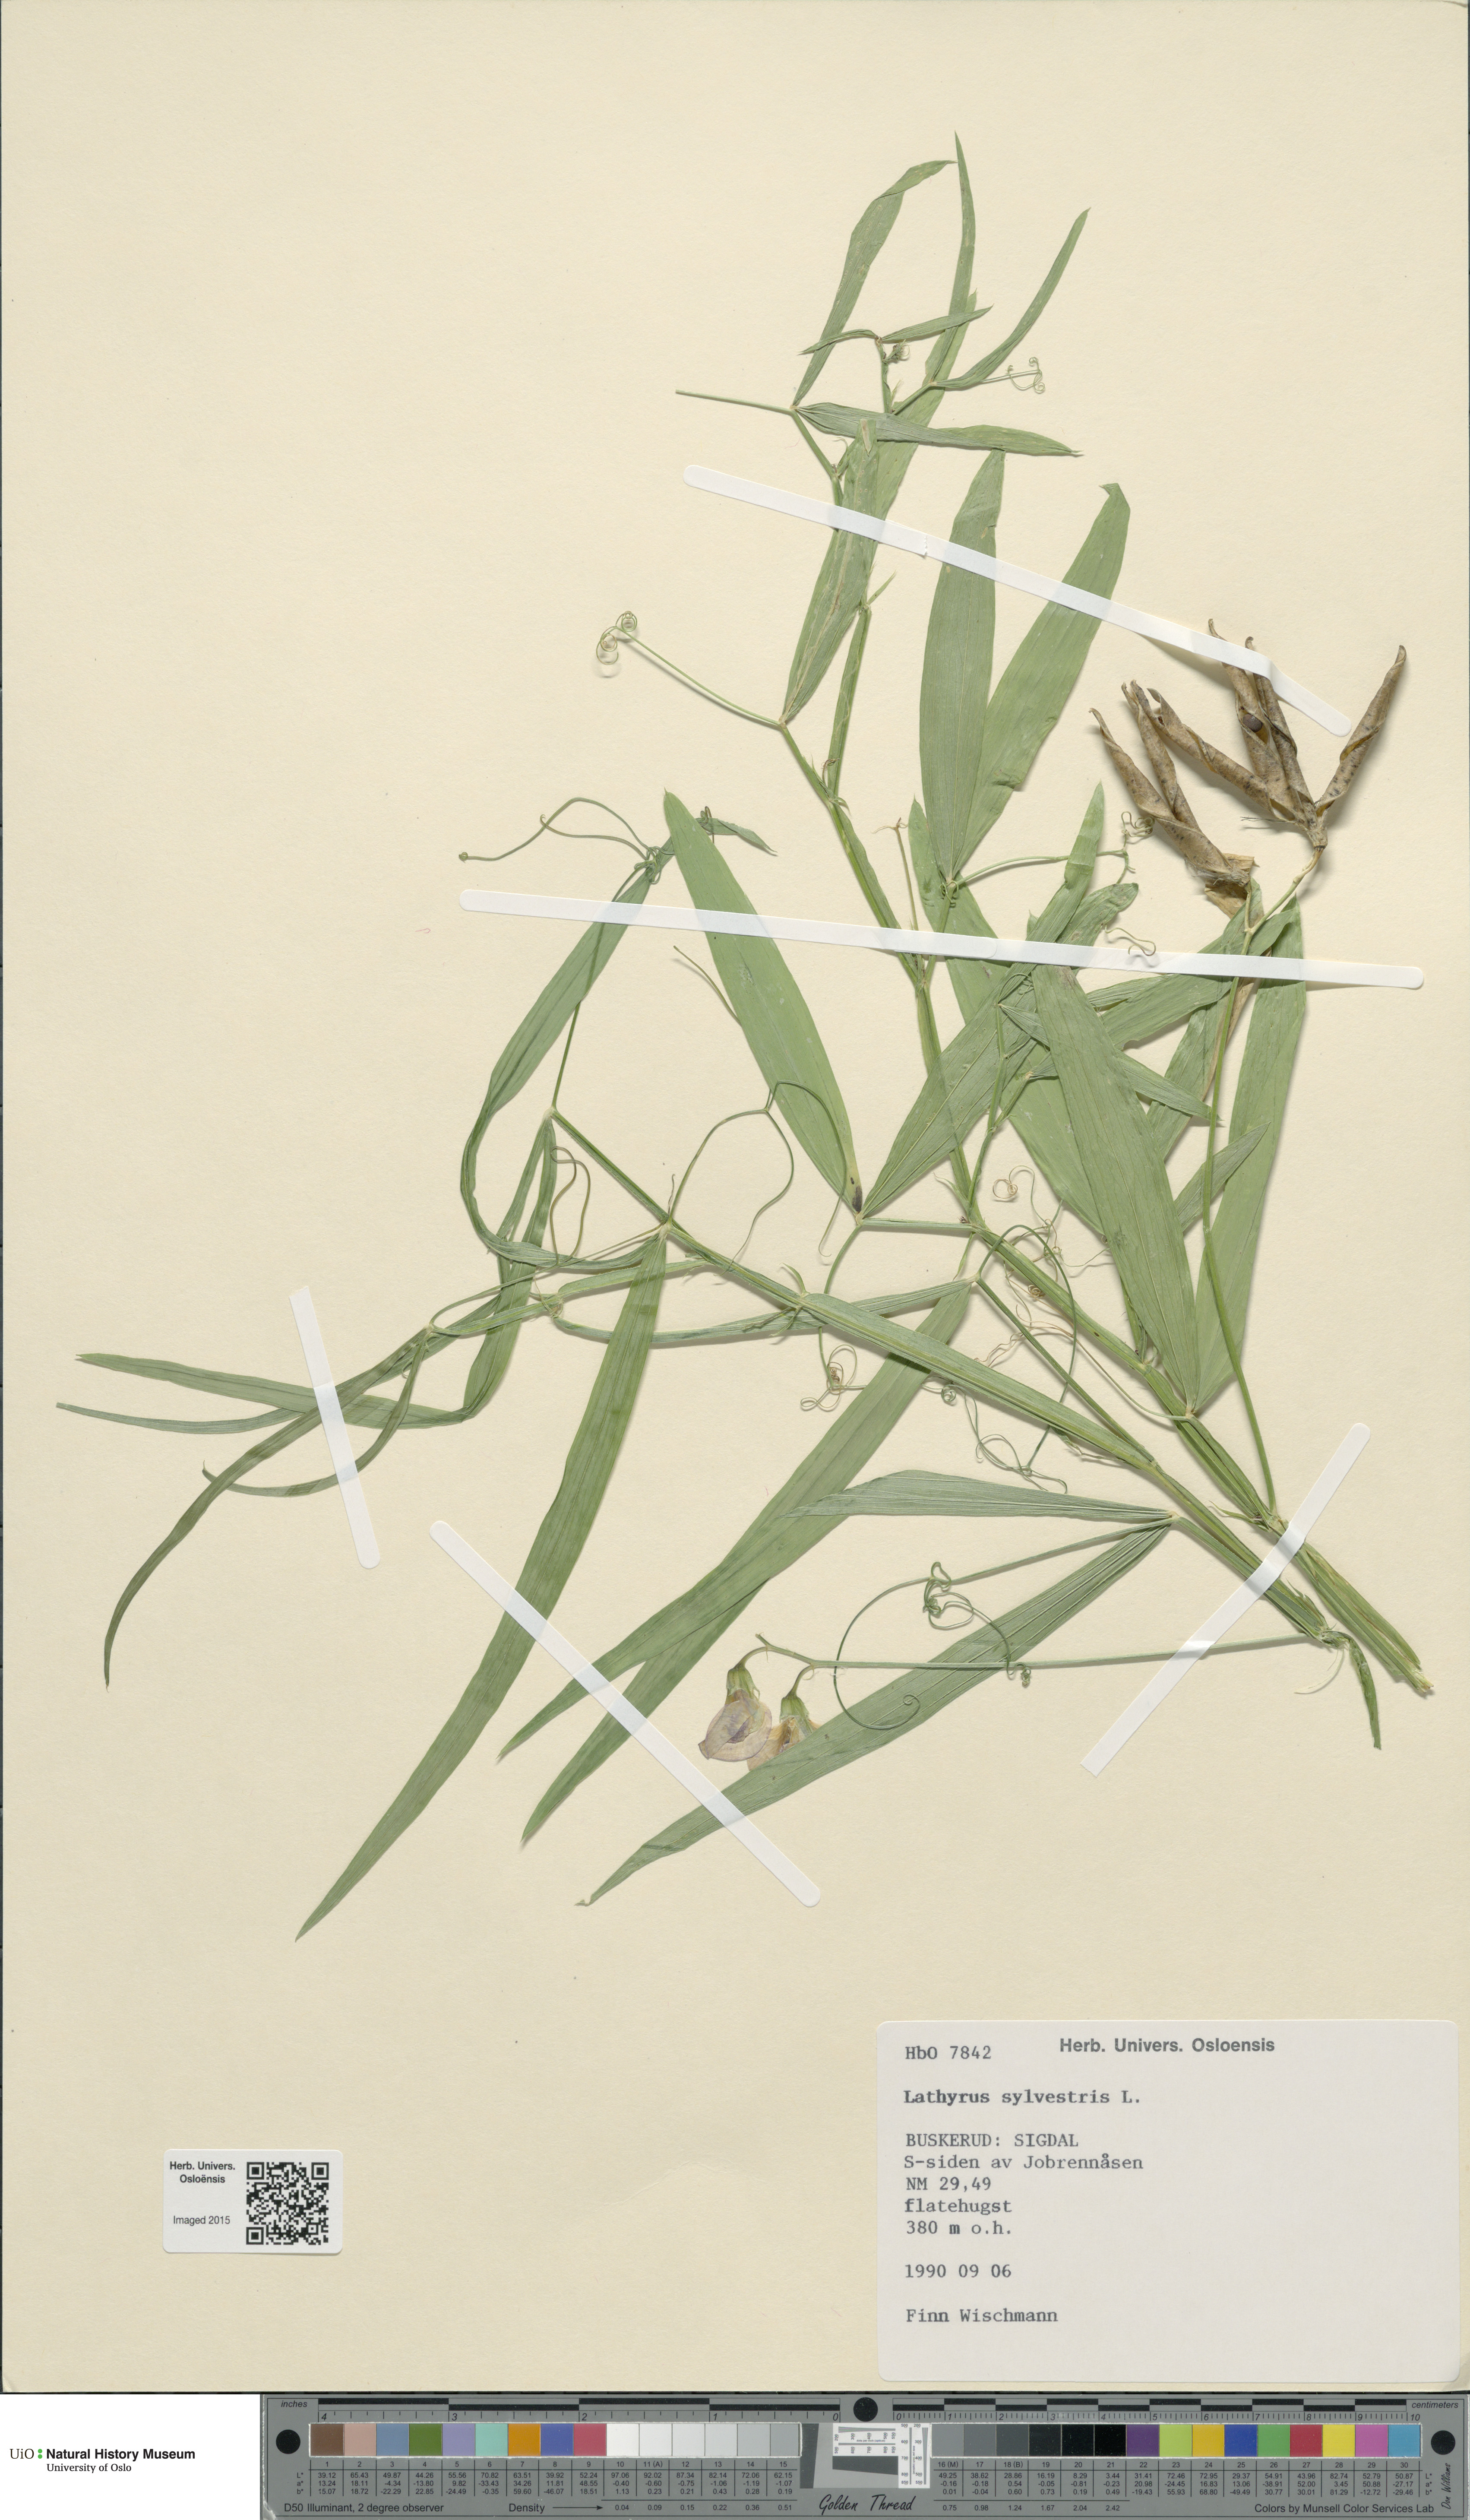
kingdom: Plantae
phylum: Tracheophyta
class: Magnoliopsida
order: Fabales
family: Fabaceae
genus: Lathyrus
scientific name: Lathyrus sylvestris
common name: Flat pea
